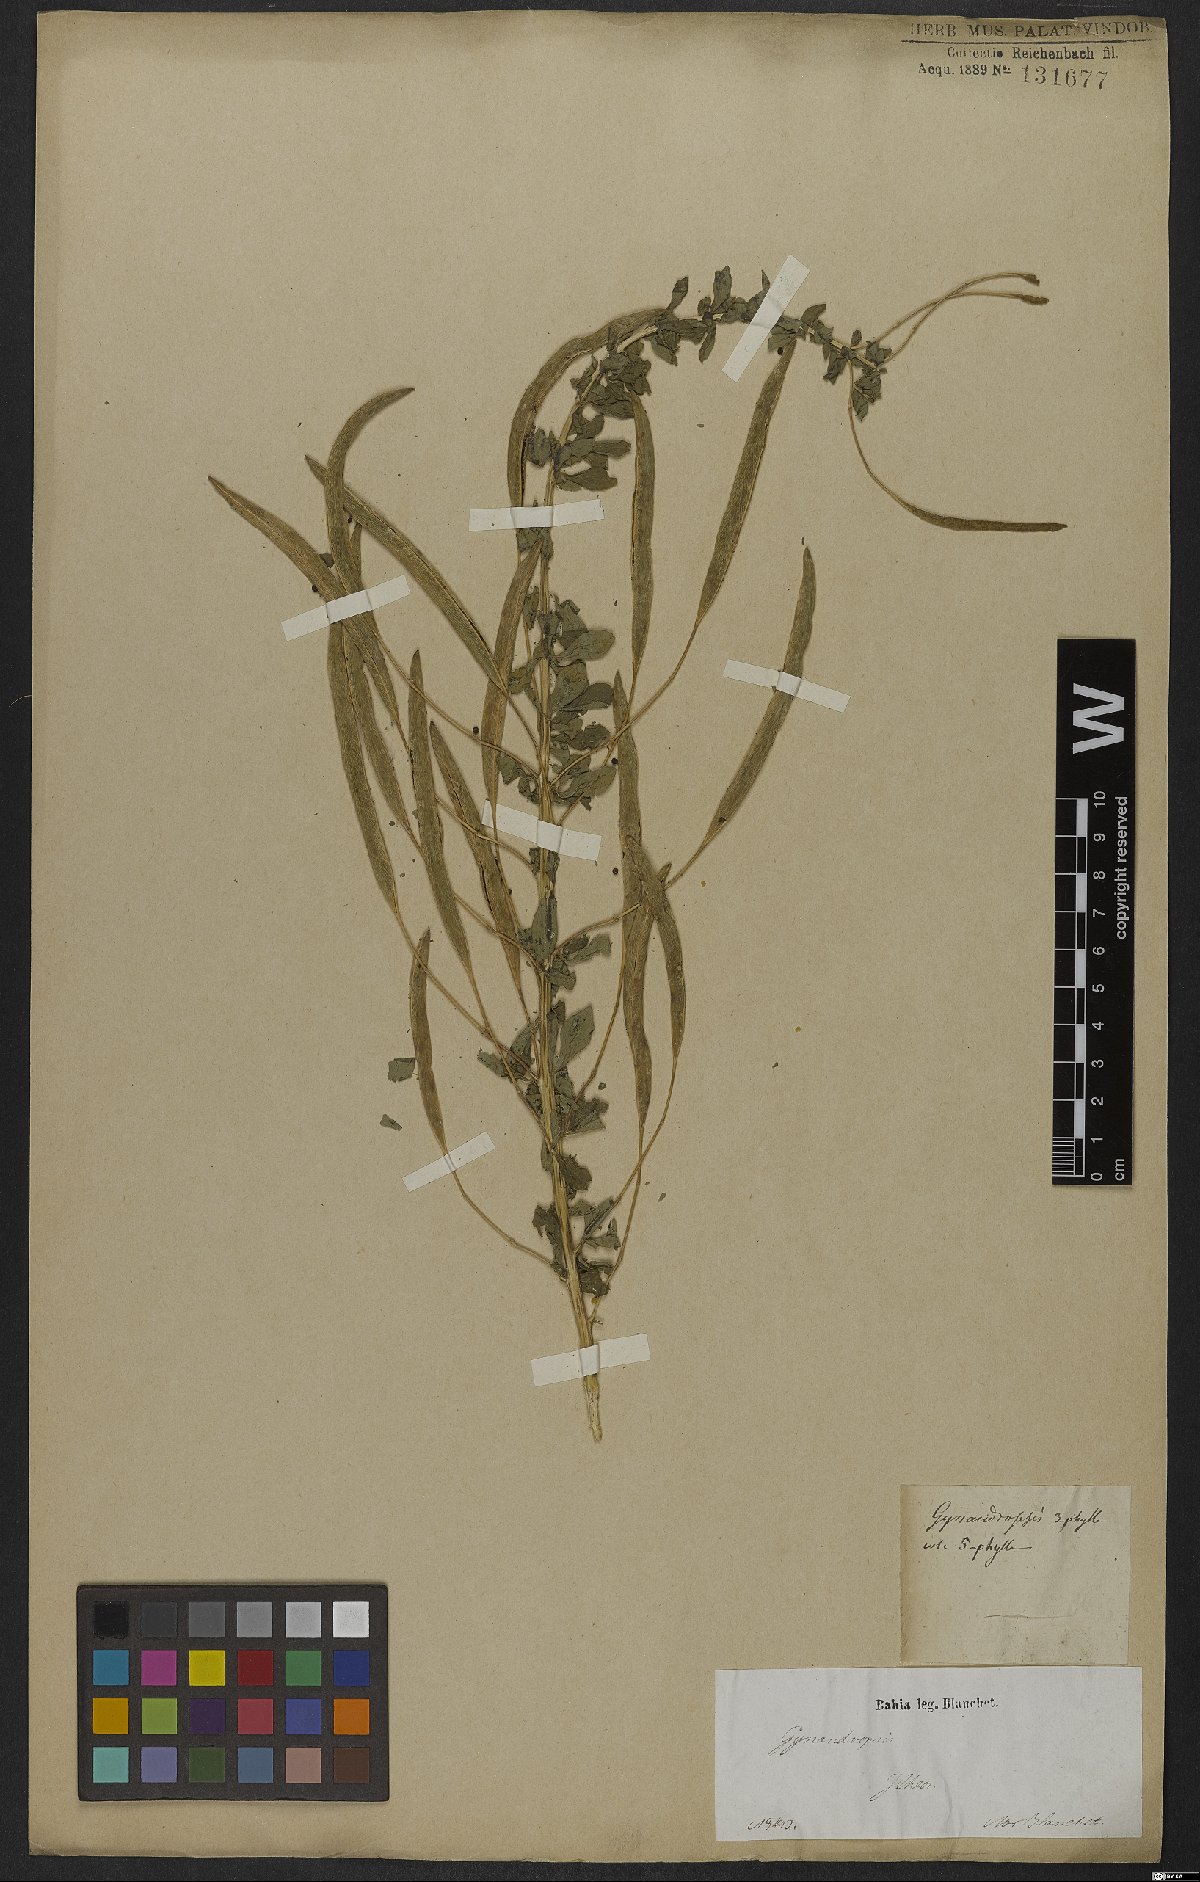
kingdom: Plantae
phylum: Tracheophyta
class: Magnoliopsida
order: Brassicales
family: Cleomaceae
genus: Gynandropsis
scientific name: Gynandropsis gynandra
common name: Spiderwisp
